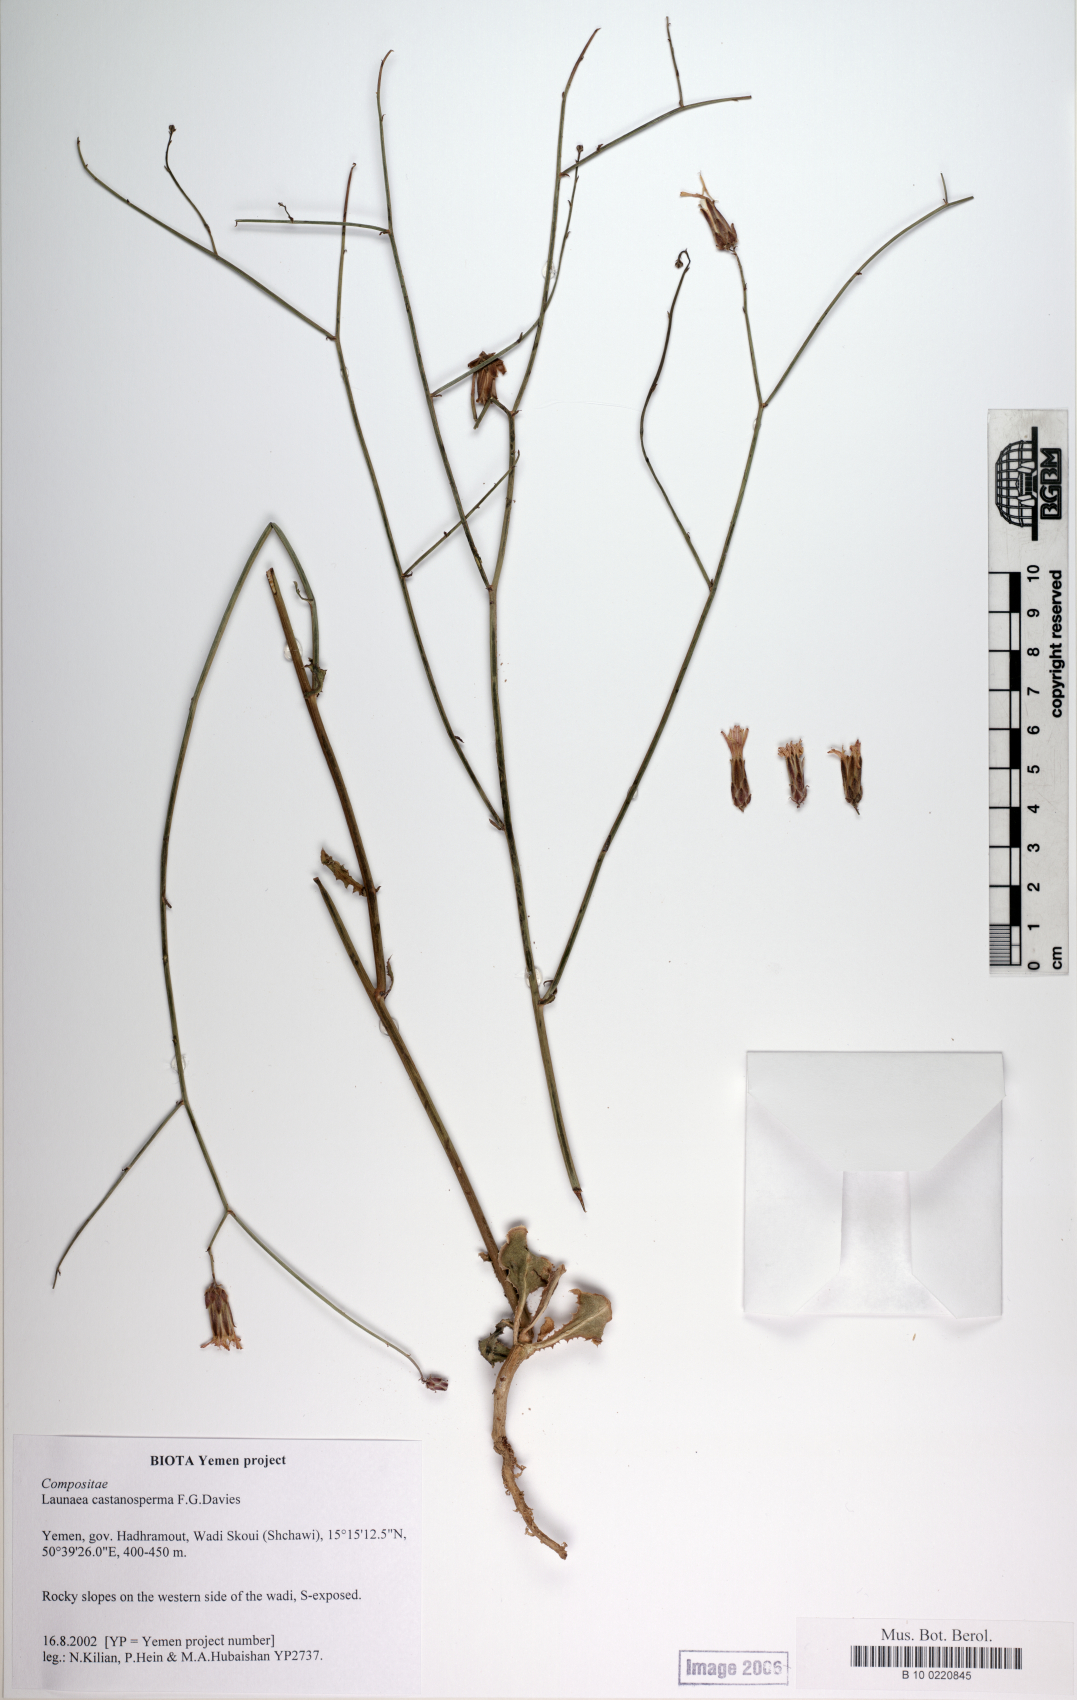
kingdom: Plantae
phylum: Tracheophyta
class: Magnoliopsida
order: Asterales
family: Asteraceae
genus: Launaea
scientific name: Launaea castanosperma
